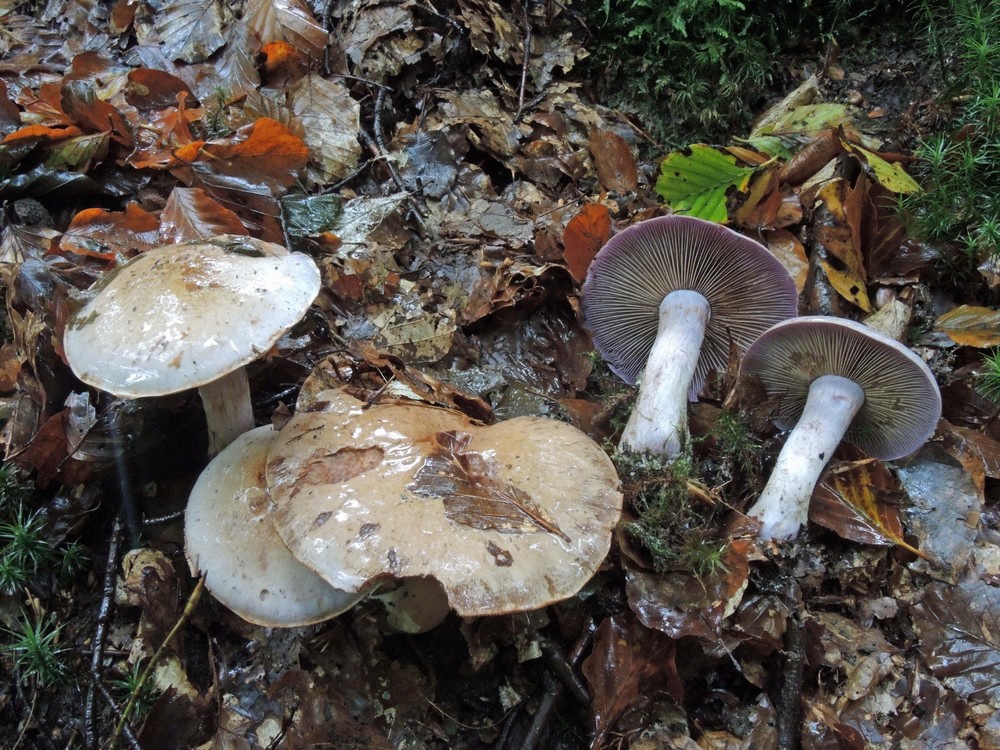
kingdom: Fungi
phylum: Basidiomycota
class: Agaricomycetes
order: Agaricales
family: Cortinariaceae
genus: Cortinarius
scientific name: Cortinarius largus
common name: violetrandet slørhat
